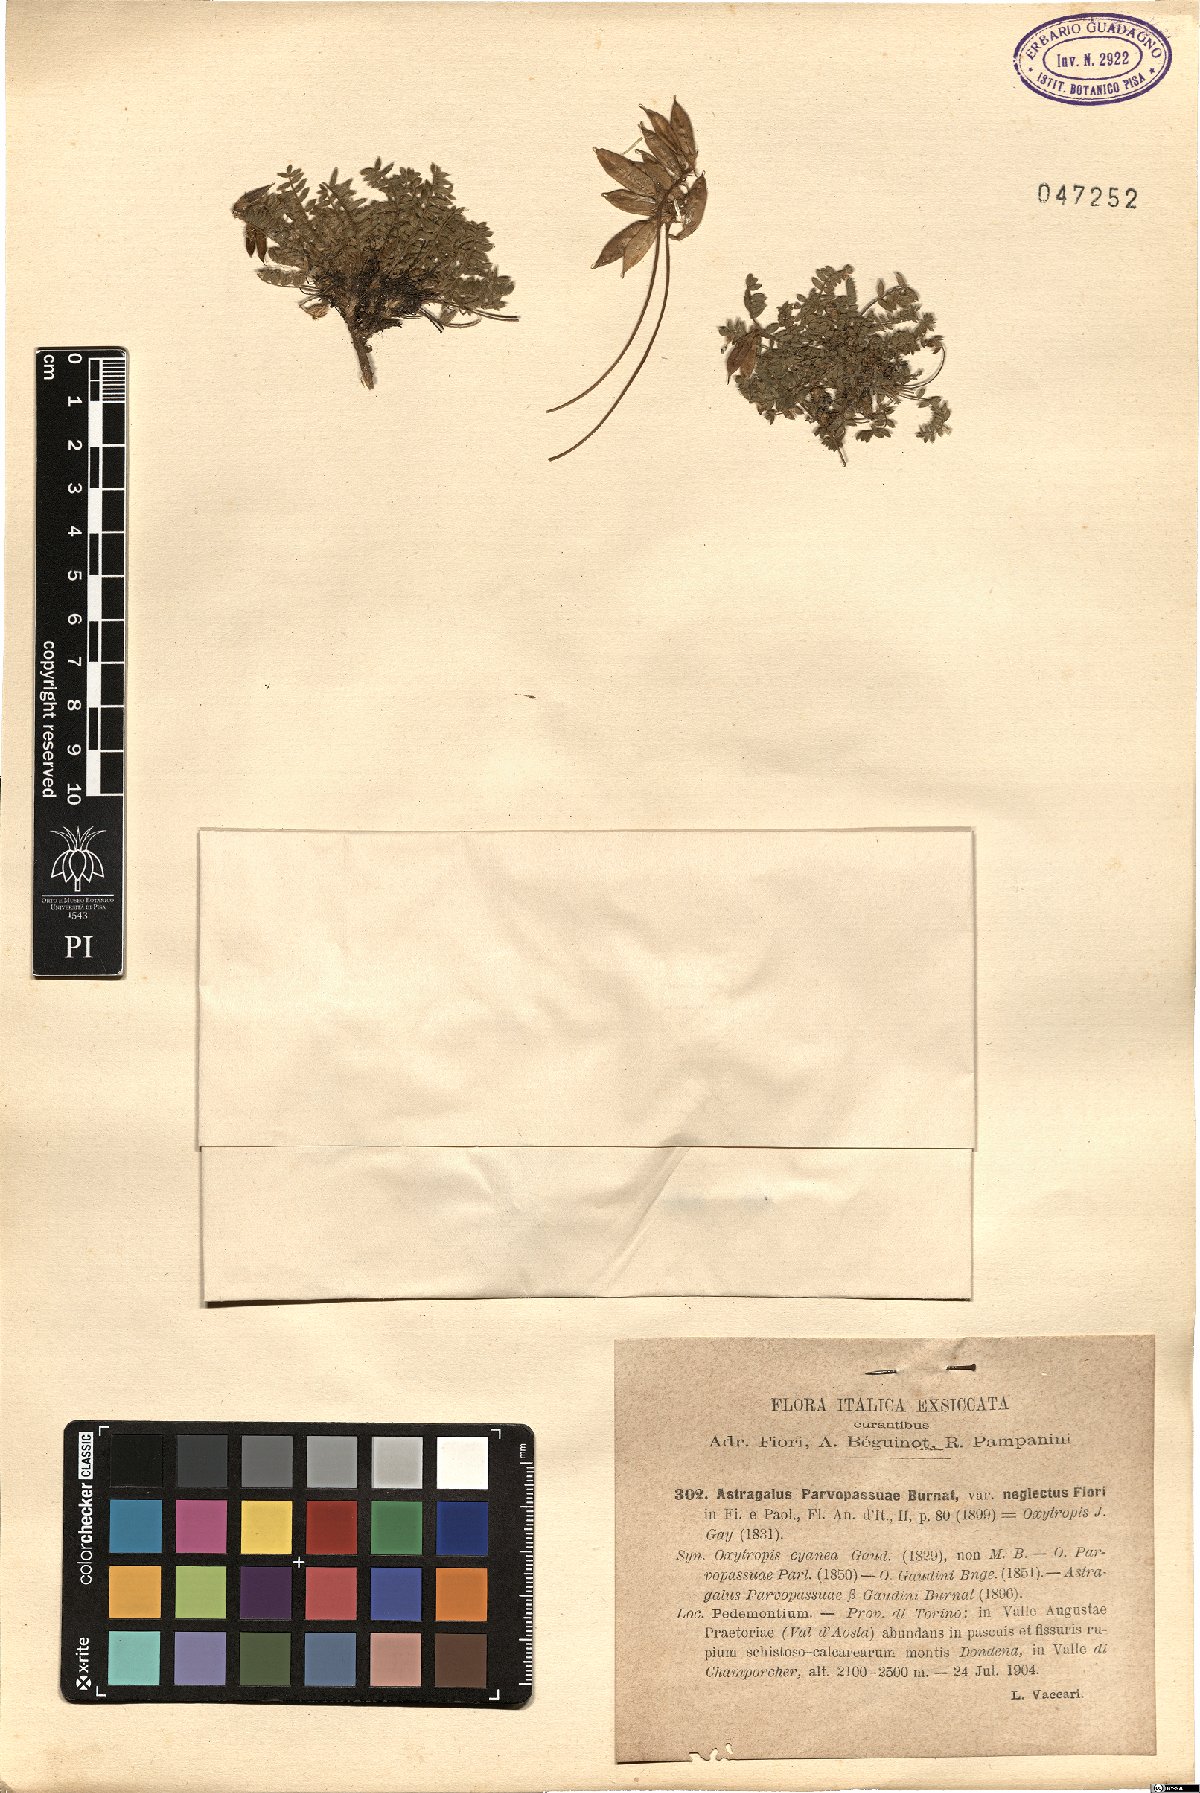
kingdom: Plantae
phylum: Tracheophyta
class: Magnoliopsida
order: Fabales
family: Fabaceae
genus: Oxytropis
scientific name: Oxytropis helvetica
